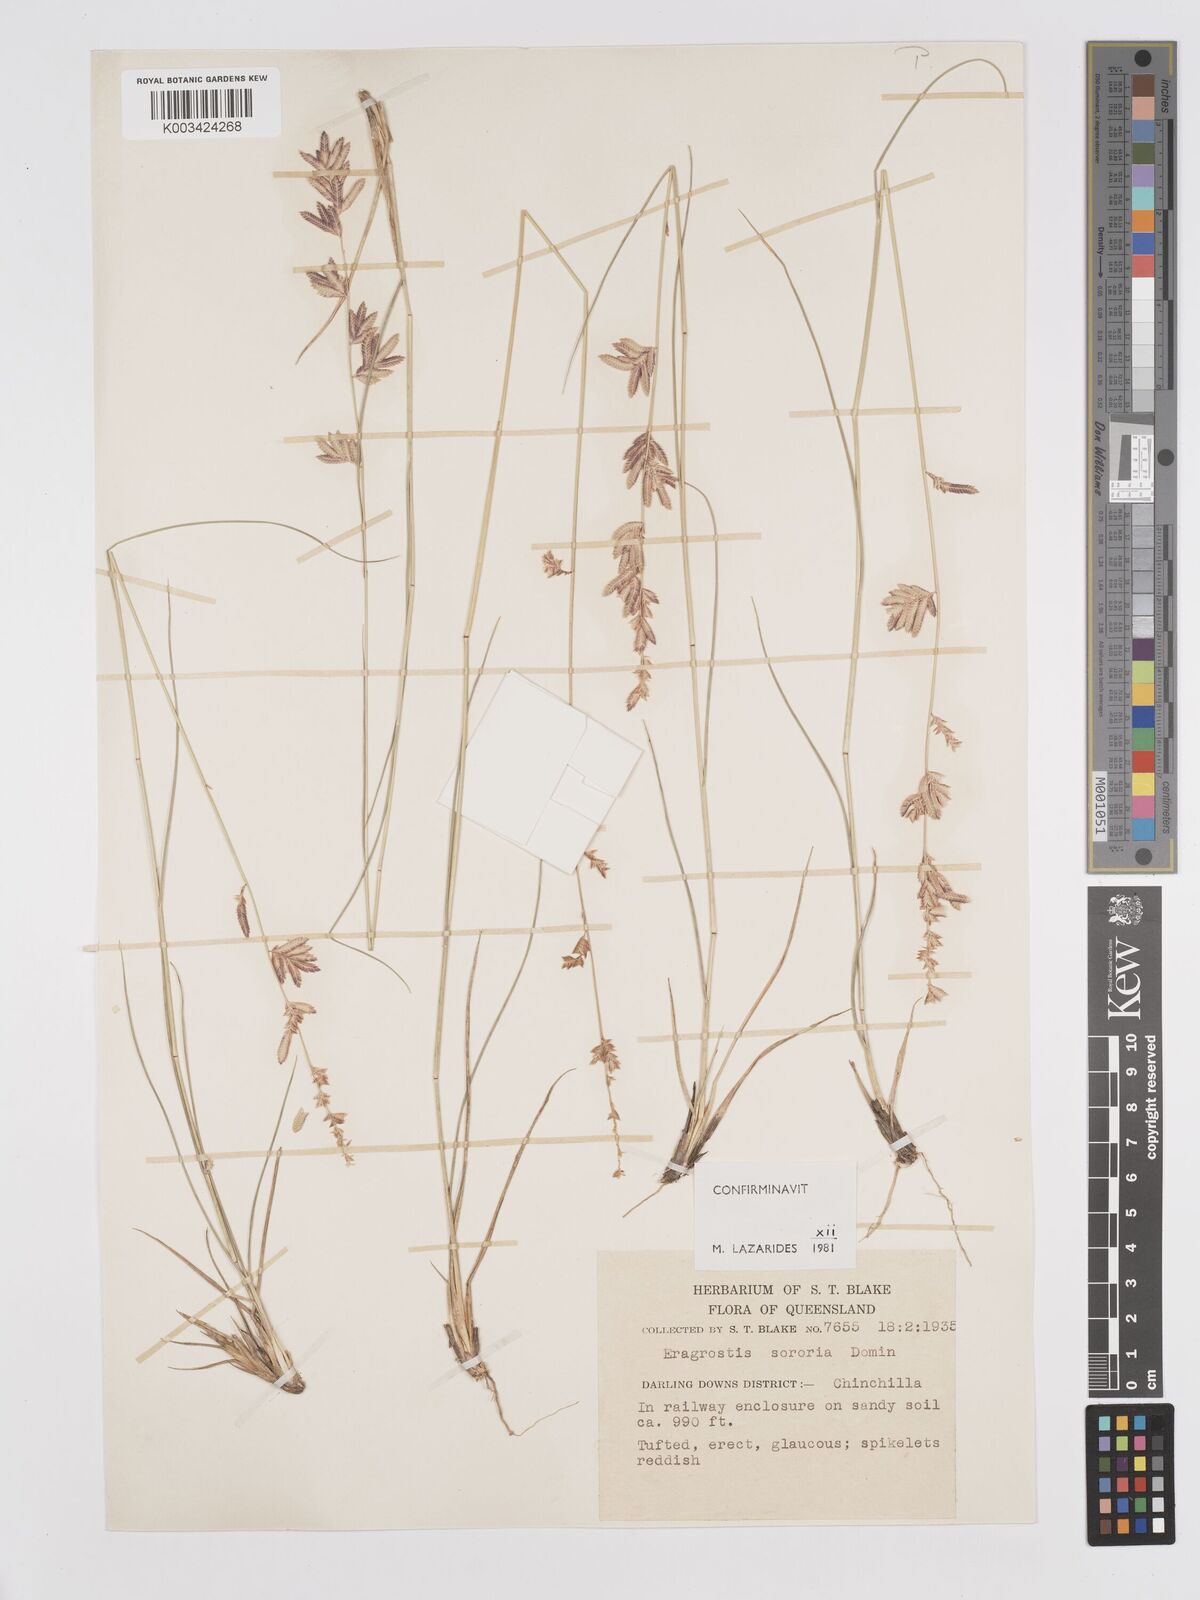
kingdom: Plantae
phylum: Tracheophyta
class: Liliopsida
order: Poales
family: Poaceae
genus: Eragrostis
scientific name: Eragrostis sororia
